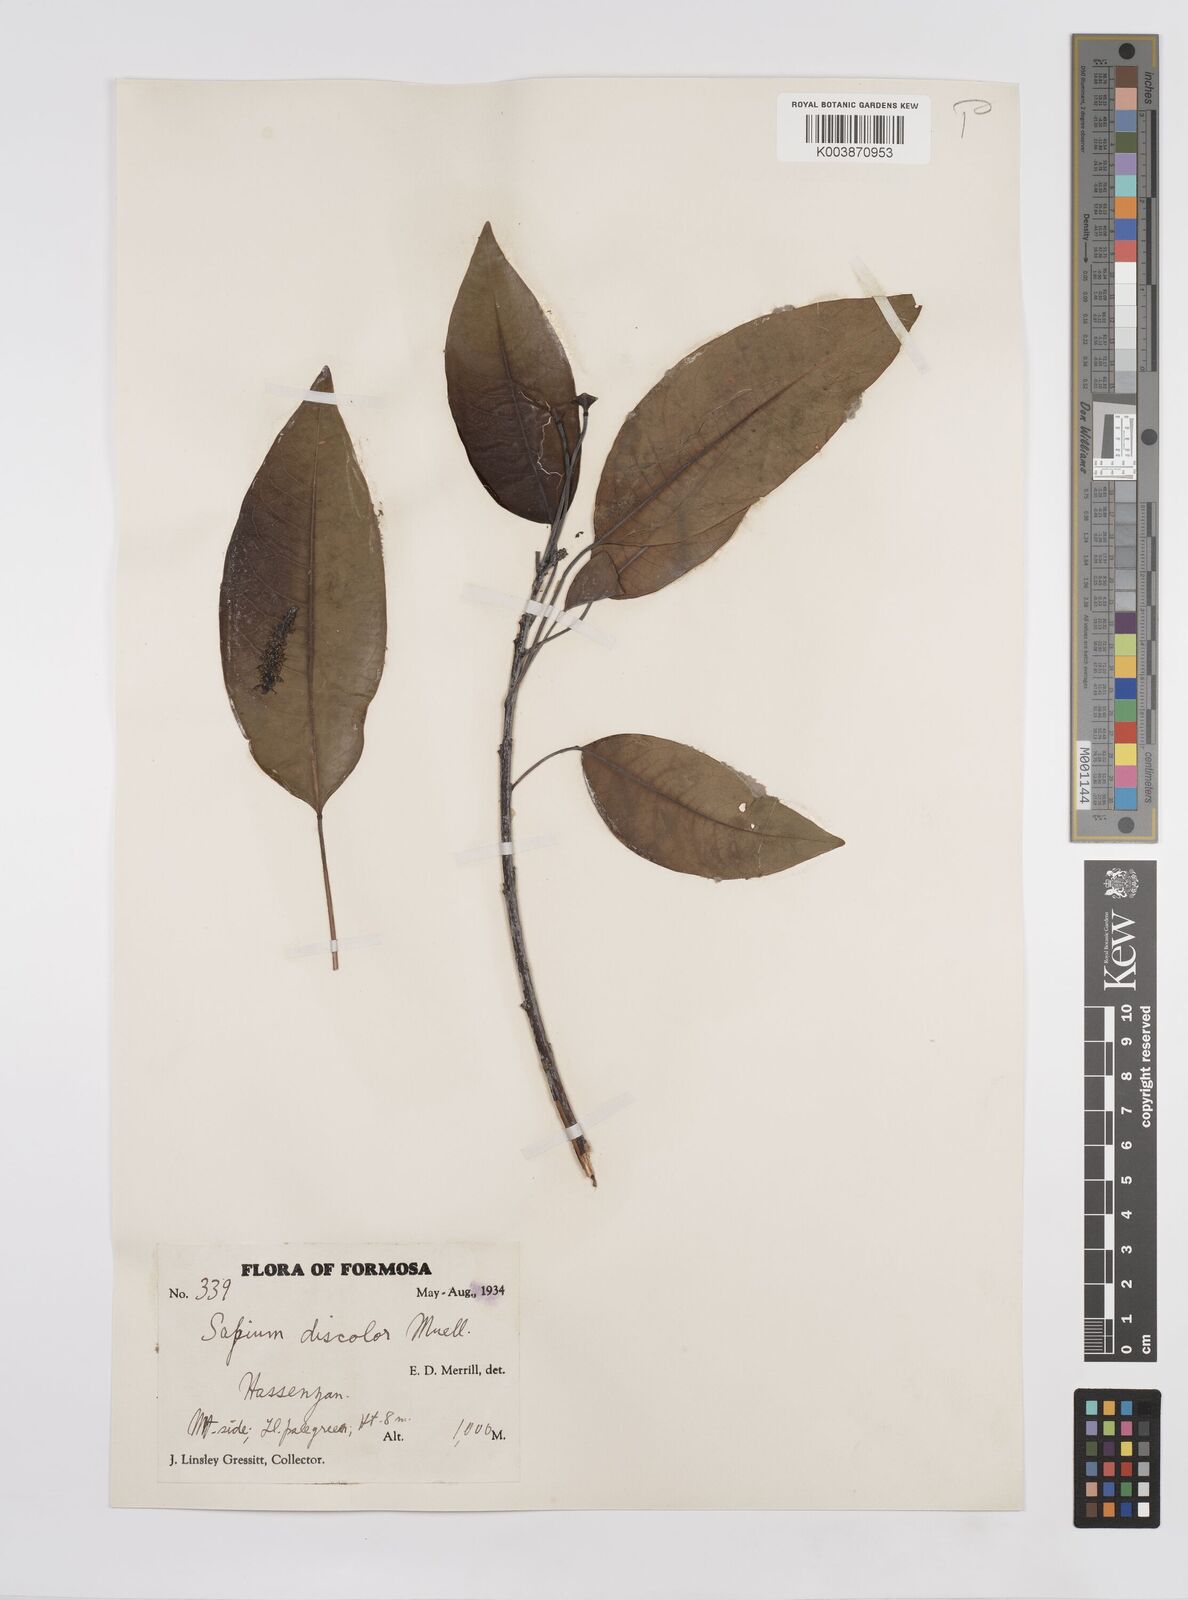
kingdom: Plantae
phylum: Tracheophyta
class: Magnoliopsida
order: Malpighiales
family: Euphorbiaceae
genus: Triadica
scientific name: Triadica cochinchinensis
